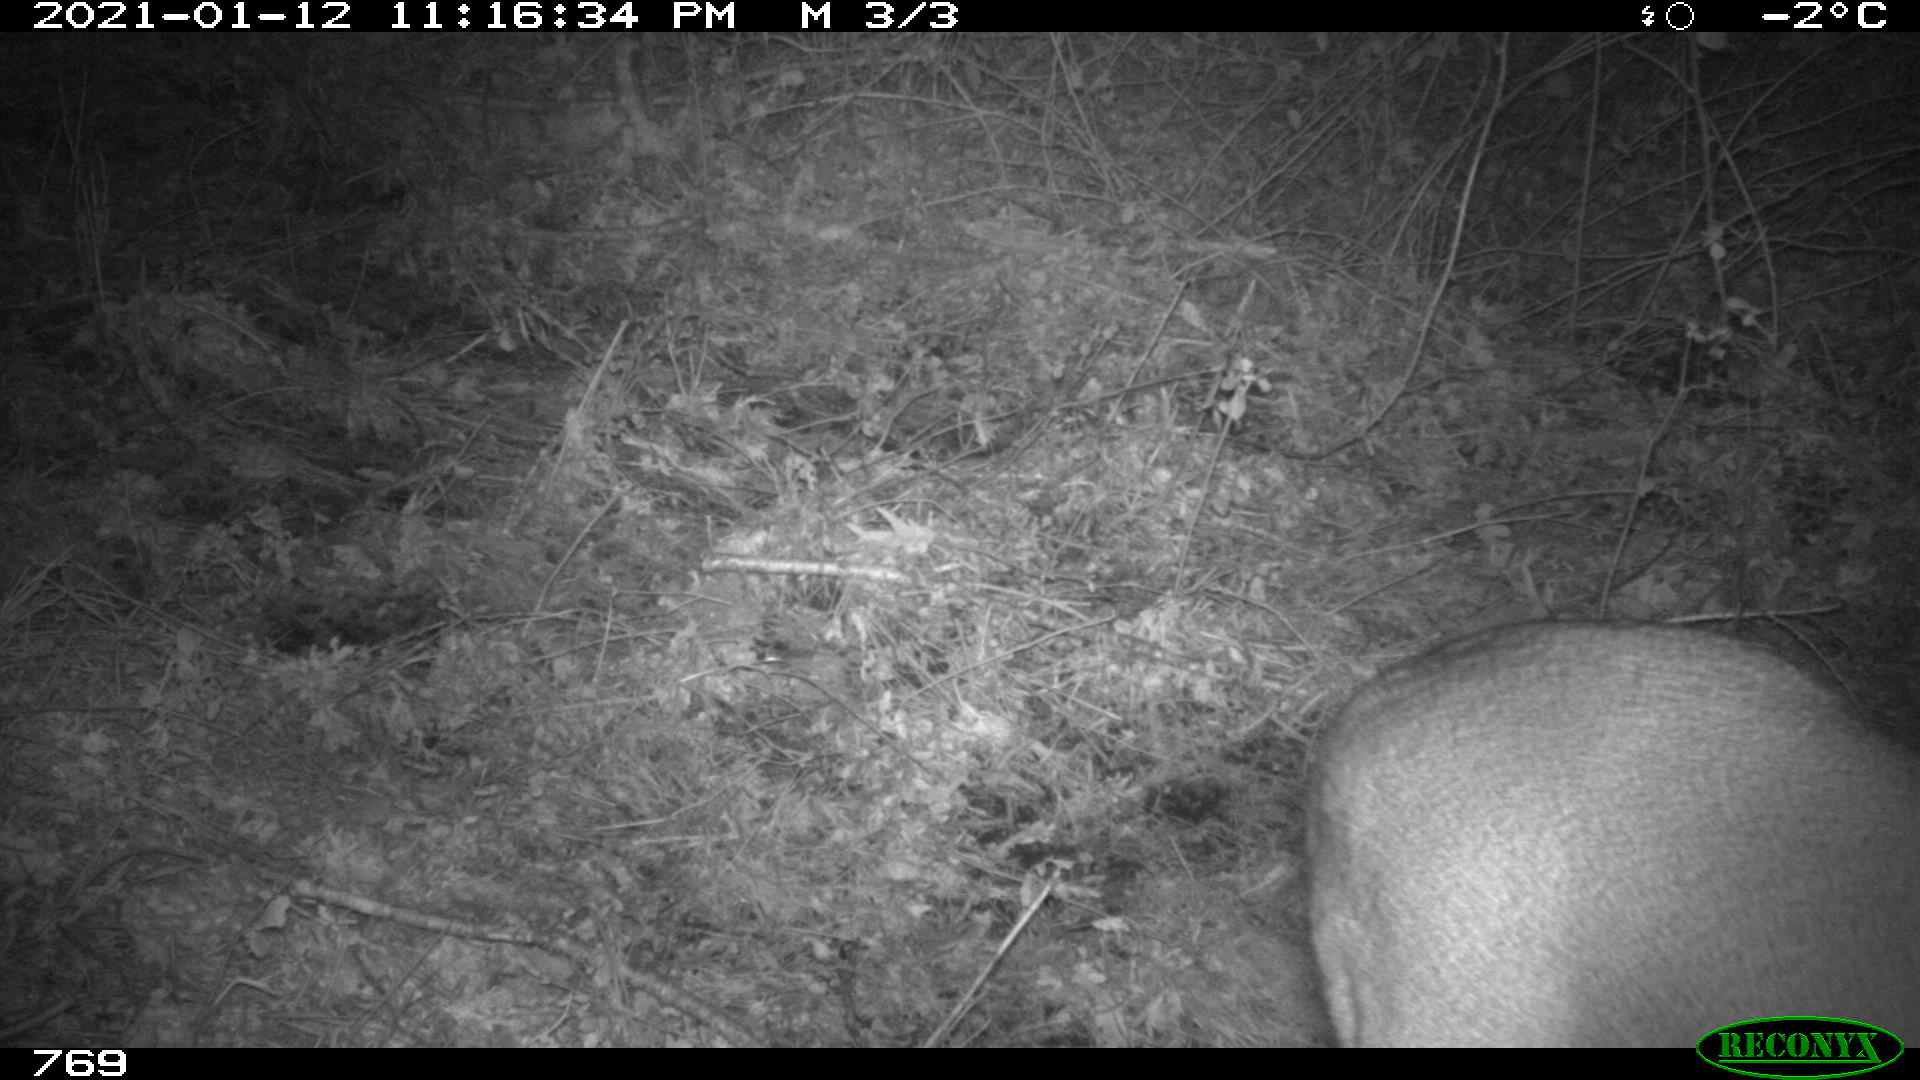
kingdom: Animalia
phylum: Chordata
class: Mammalia
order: Artiodactyla
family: Cervidae
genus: Capreolus
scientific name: Capreolus capreolus
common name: Western roe deer
